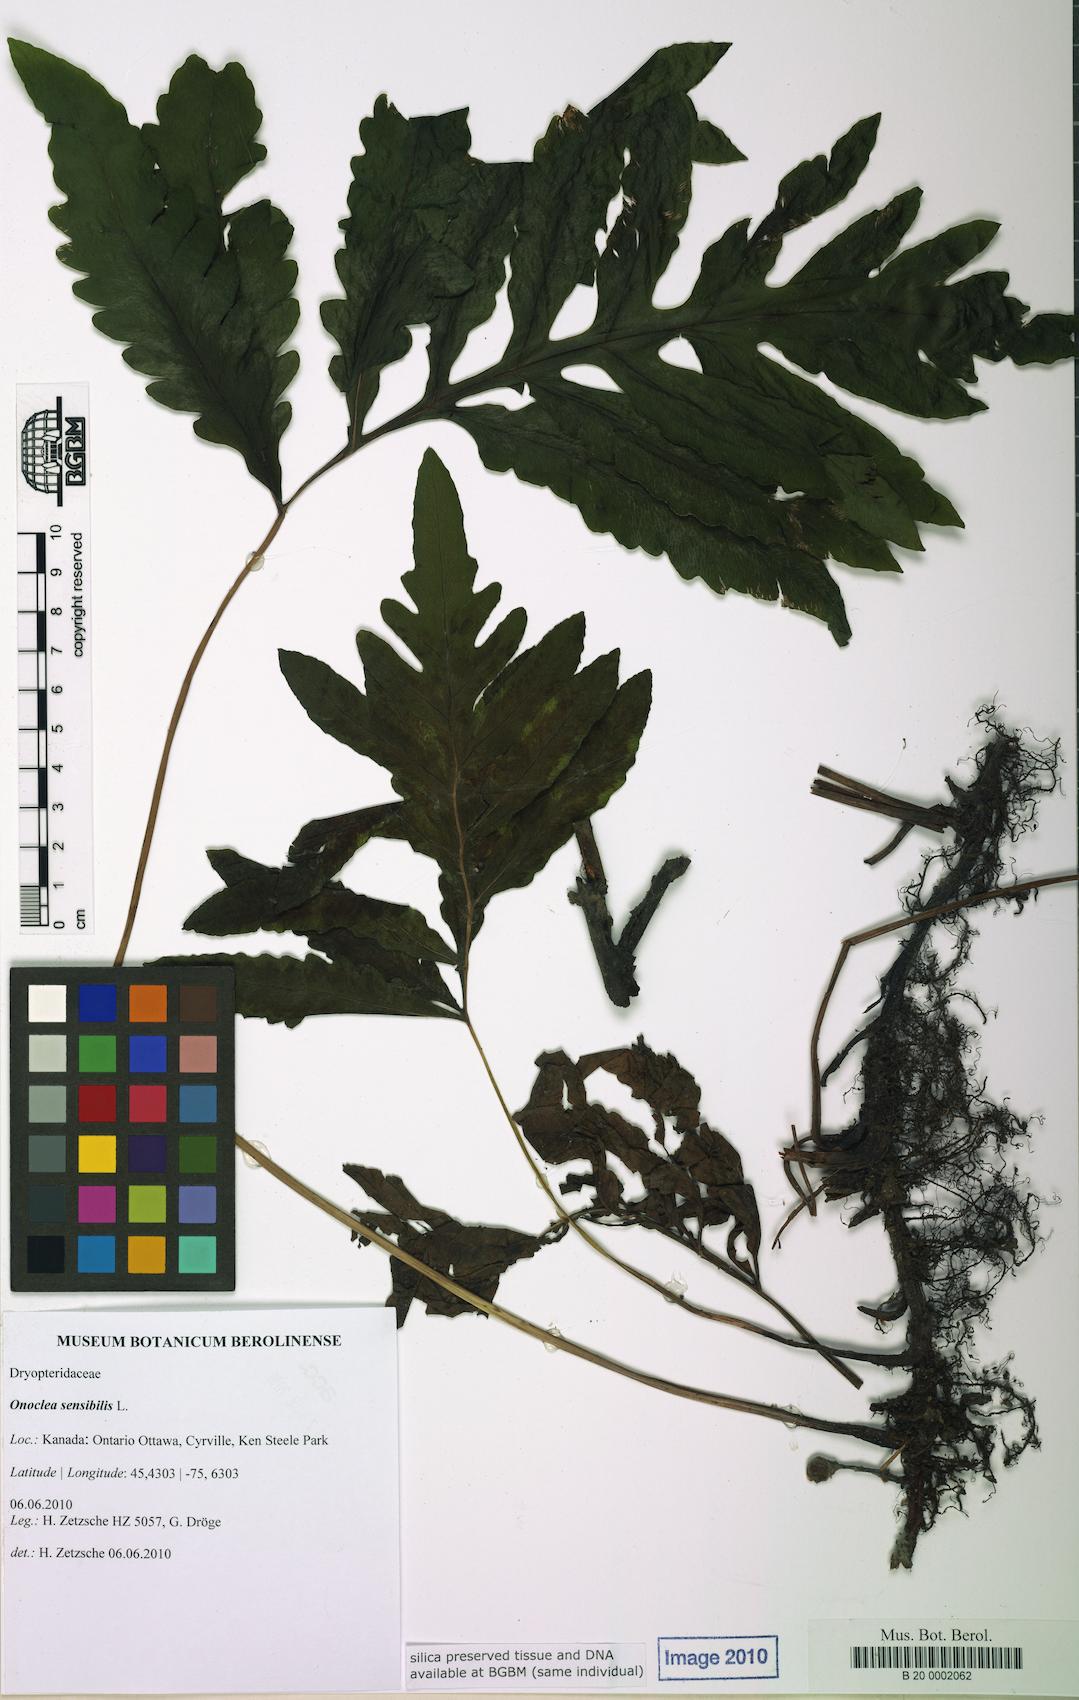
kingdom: Plantae
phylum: Tracheophyta
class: Polypodiopsida
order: Polypodiales
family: Onocleaceae
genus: Onoclea
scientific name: Onoclea sensibilis
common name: Sensitive fern
